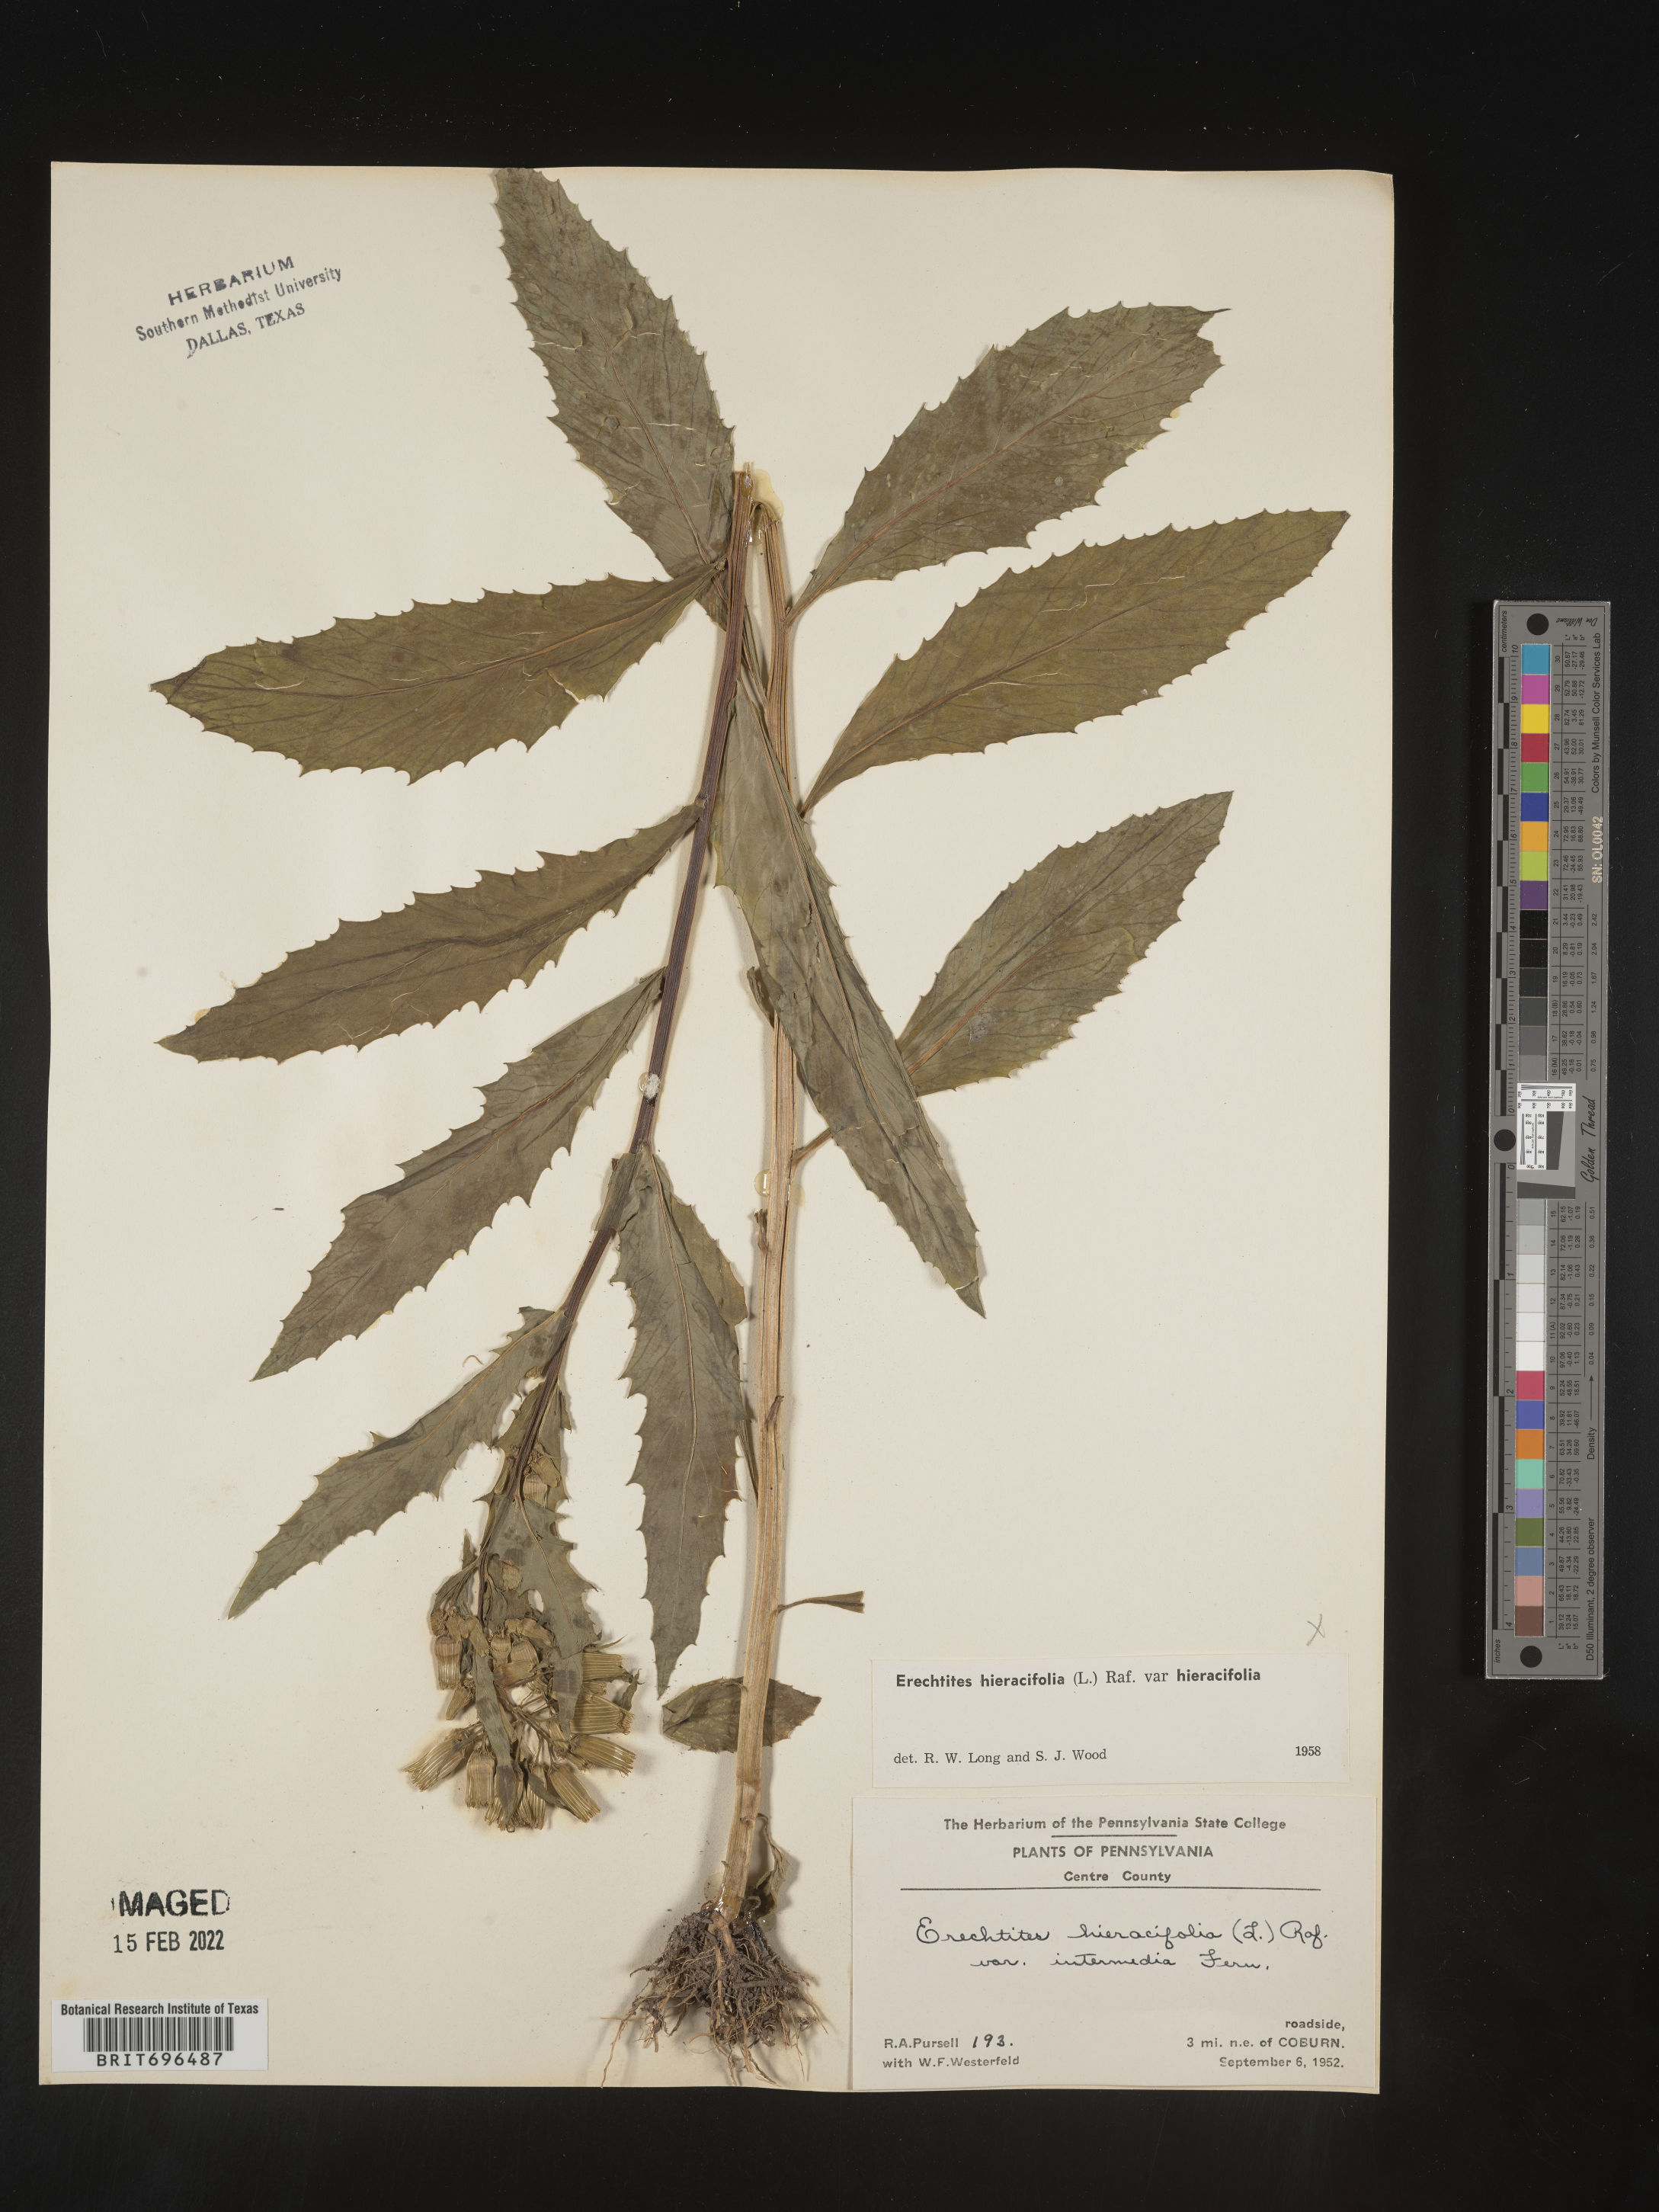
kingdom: Plantae
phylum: Tracheophyta
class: Magnoliopsida
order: Asterales
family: Asteraceae
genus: Erechtites
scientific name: Erechtites hieraciifolius
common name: American burnweed
